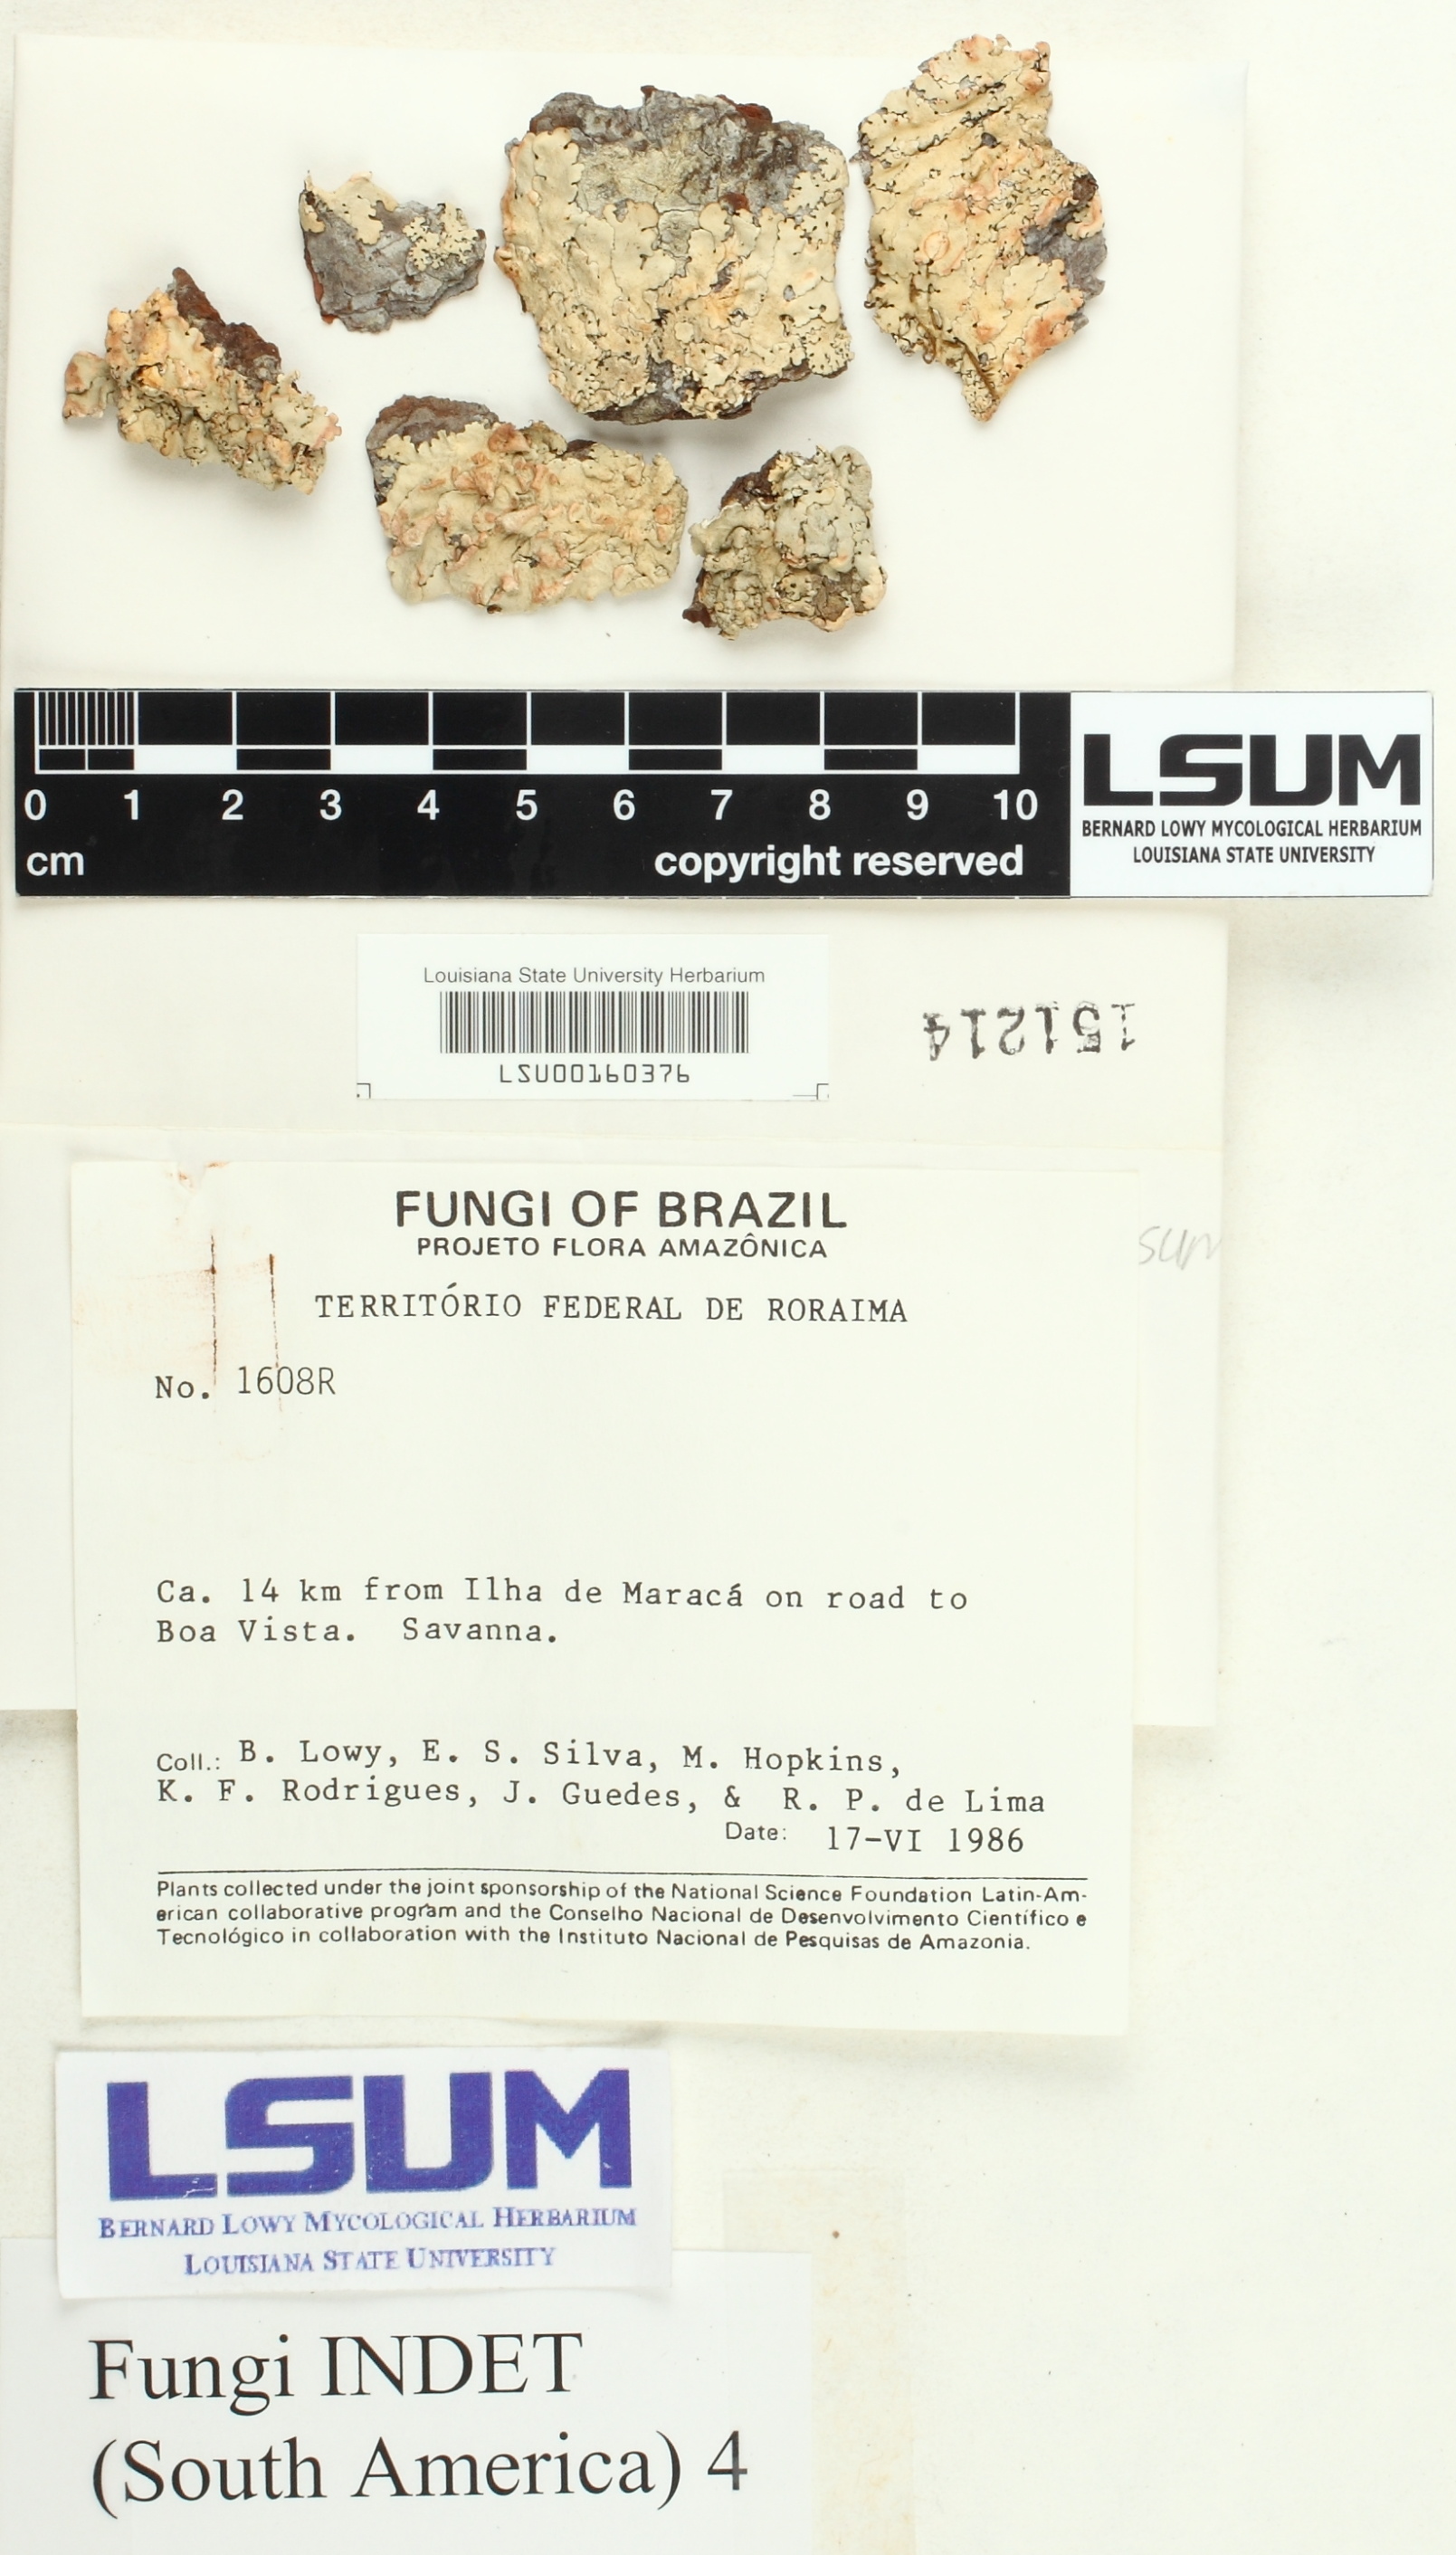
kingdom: Fungi
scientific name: Fungi
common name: Fungi
